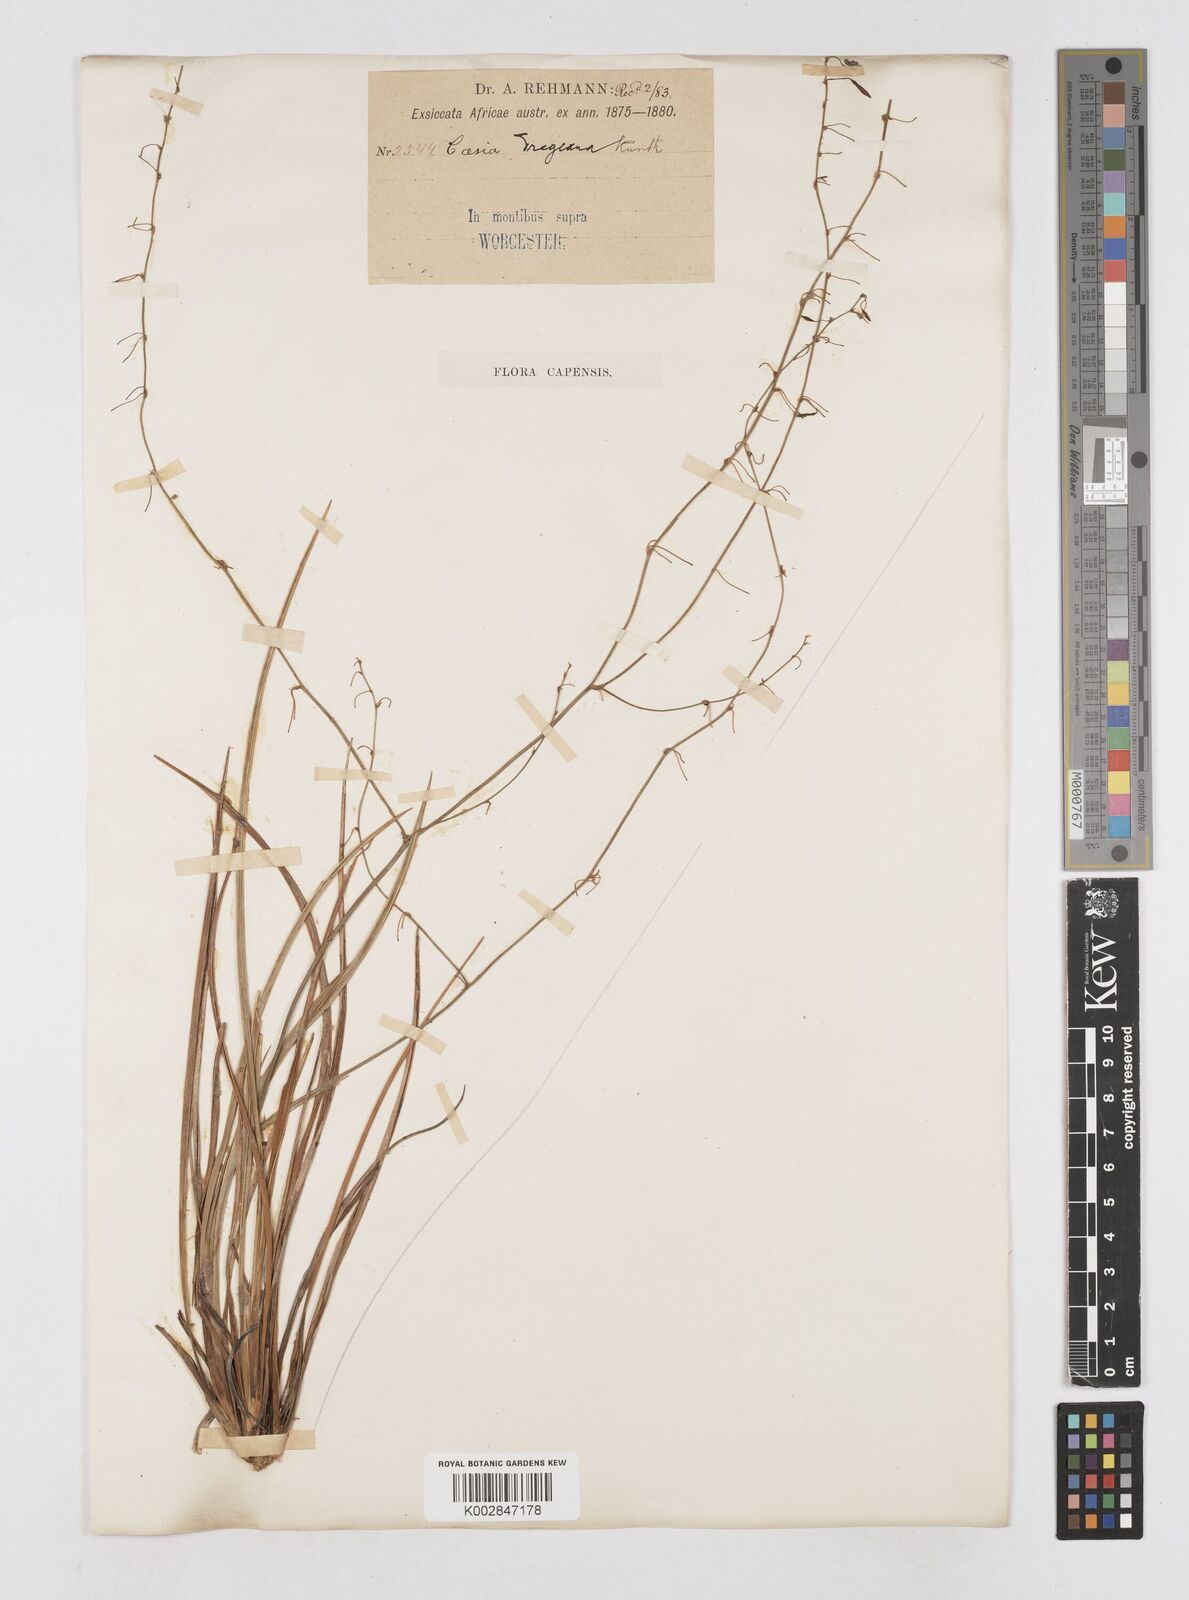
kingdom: Plantae
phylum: Tracheophyta
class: Liliopsida
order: Asparagales
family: Asphodelaceae
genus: Caesia
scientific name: Caesia contorta
